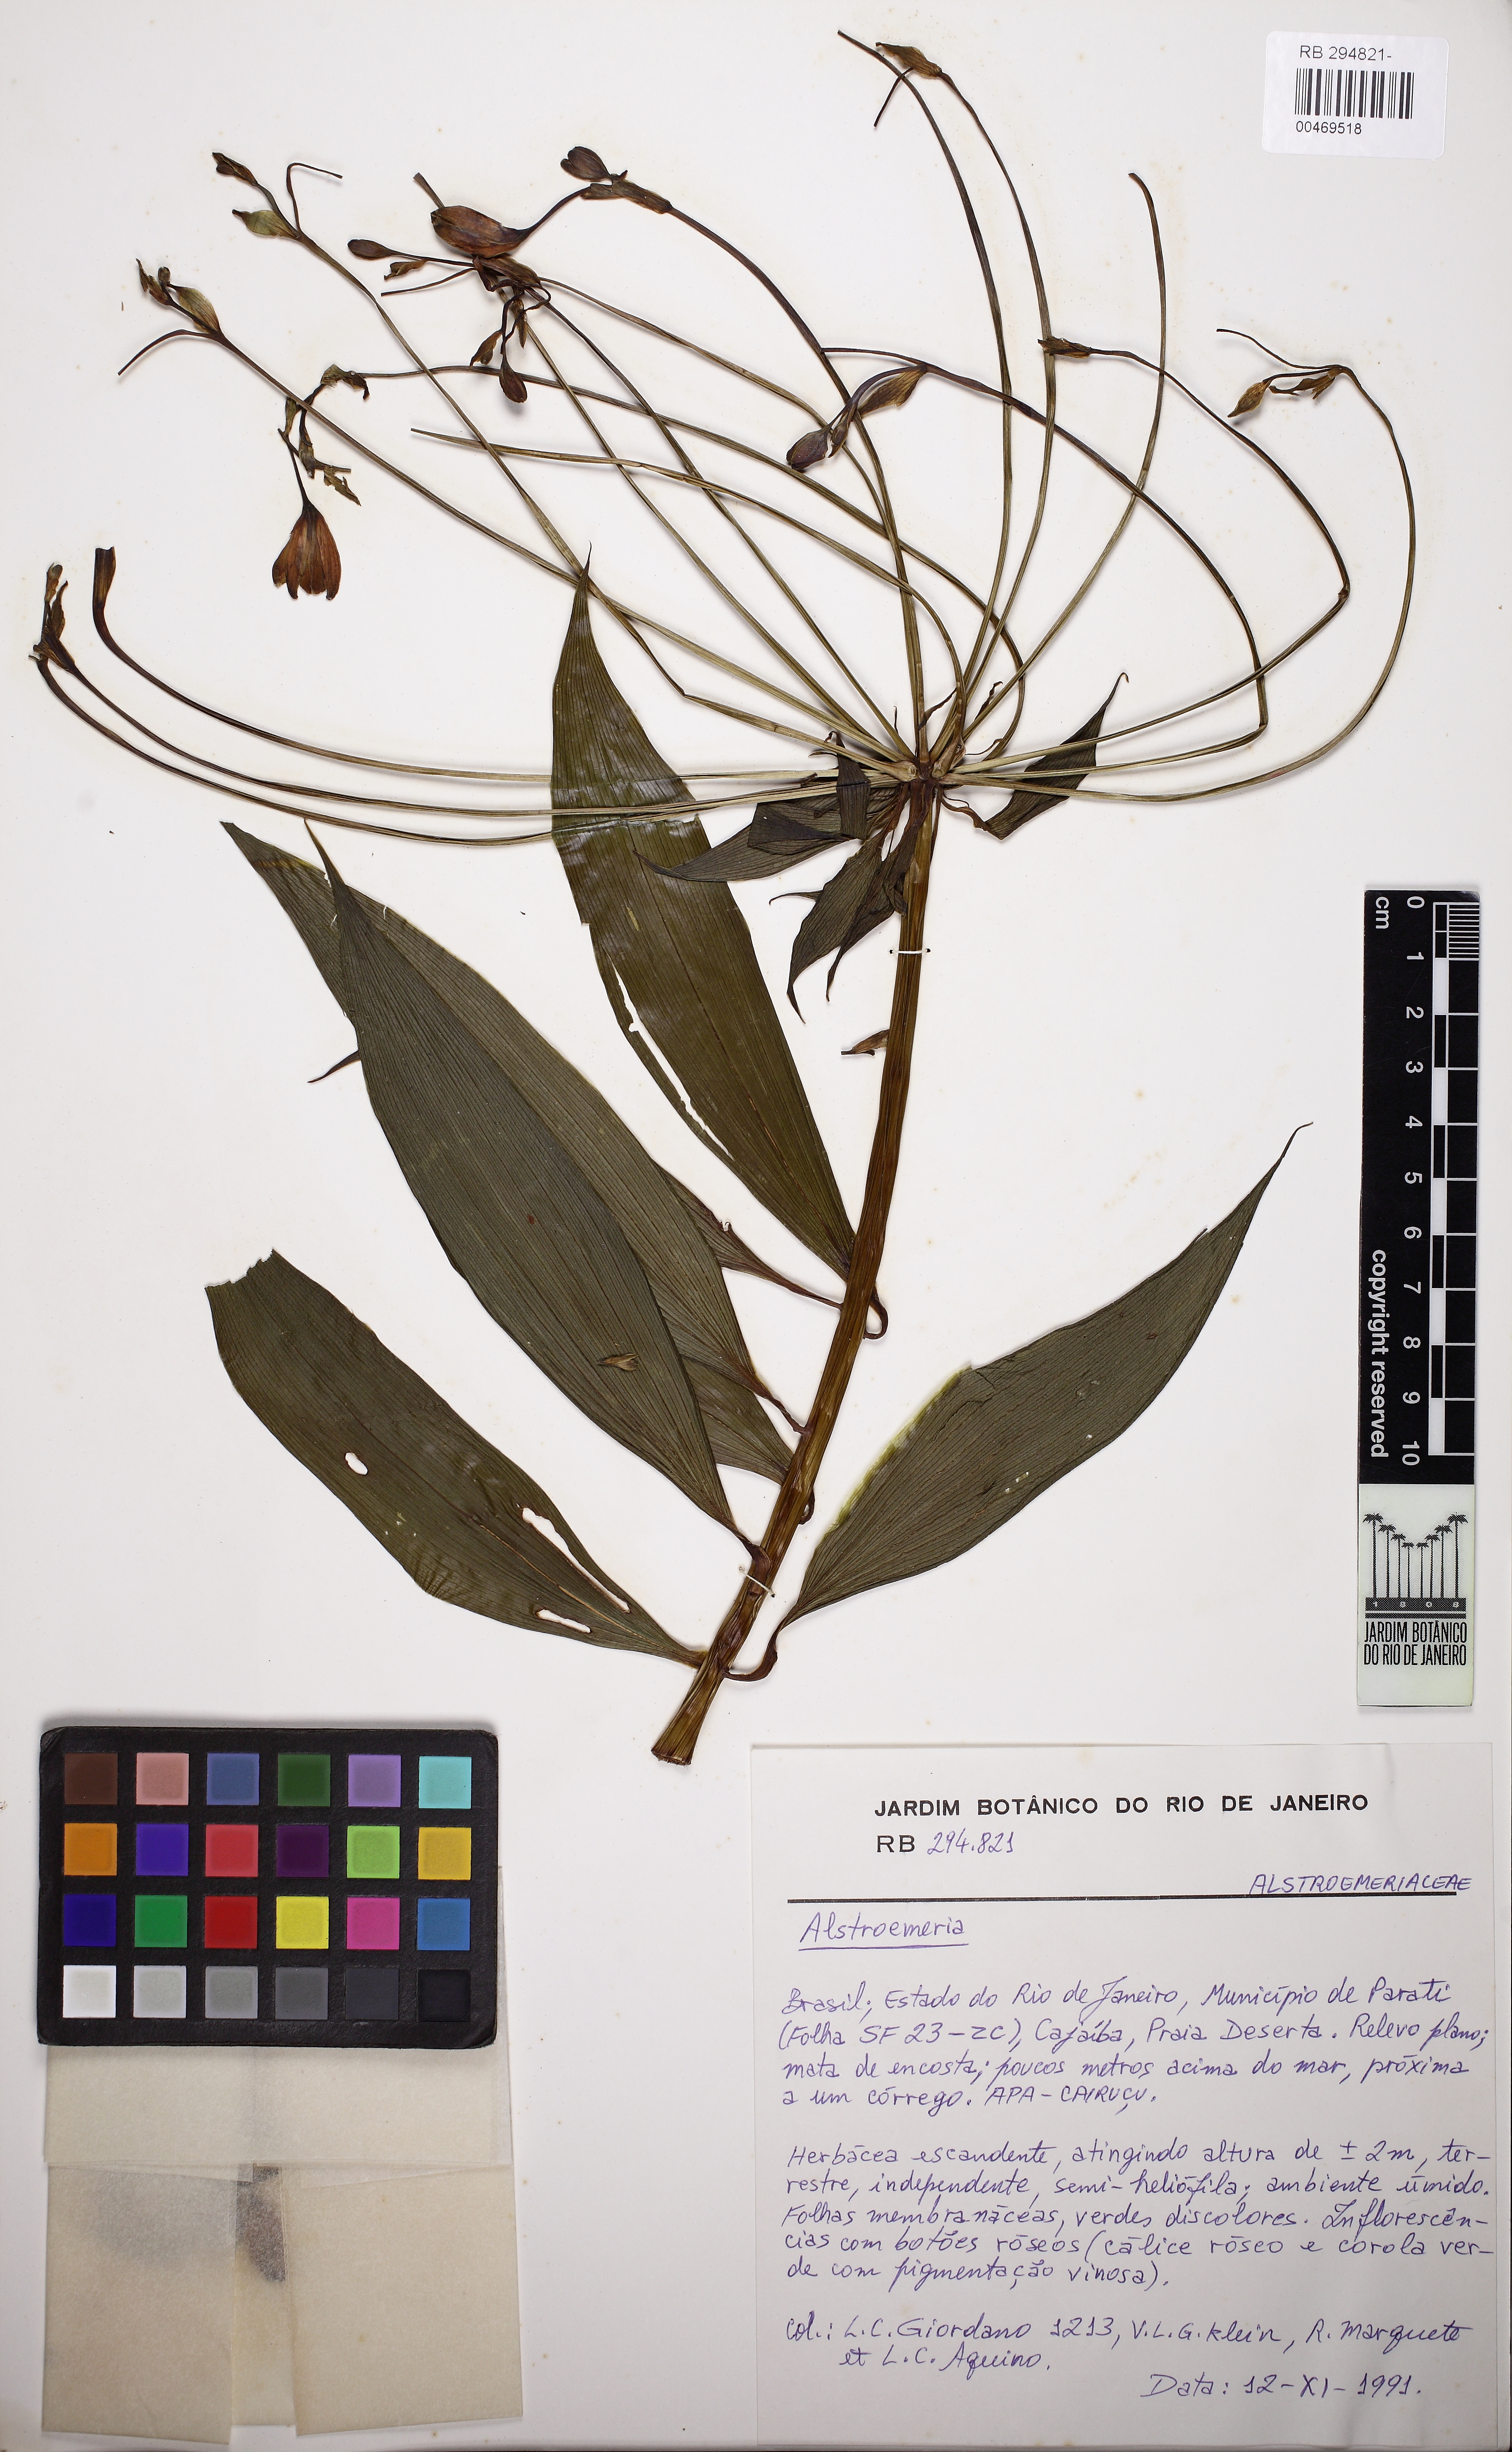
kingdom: Plantae
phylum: Tracheophyta
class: Liliopsida
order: Liliales
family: Alstroemeriaceae
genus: Alstroemeria
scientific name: Alstroemeria
